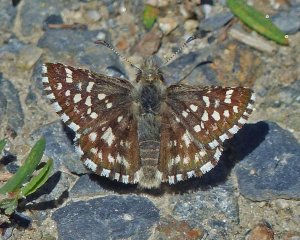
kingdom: Animalia
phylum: Arthropoda
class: Insecta
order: Lepidoptera
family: Hesperiidae
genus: Pyrgus
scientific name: Pyrgus ruralis
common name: Two-banded Checkered-Skipper
